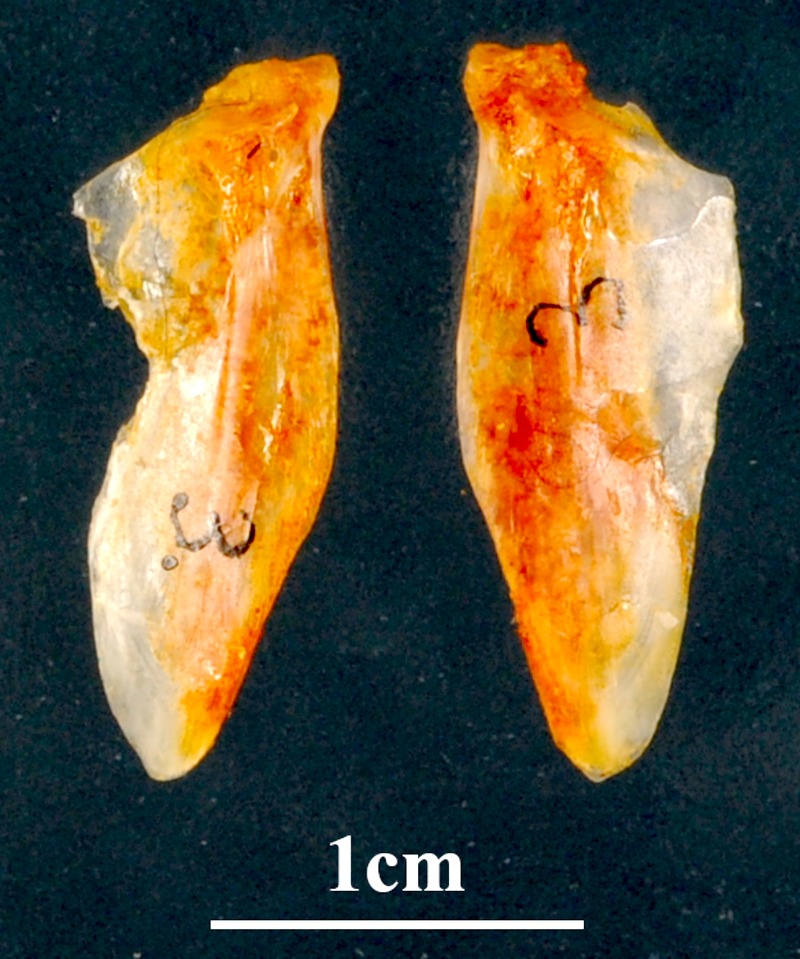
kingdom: Animalia
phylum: Chordata
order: Perciformes
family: Sparidae
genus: Diplodus
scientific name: Diplodus sargus
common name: White seabream
